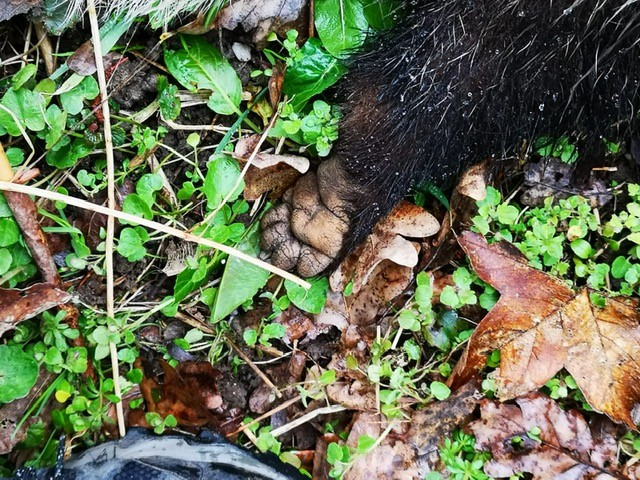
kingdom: Animalia
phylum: Chordata
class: Mammalia
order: Carnivora
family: Mustelidae
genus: Meles
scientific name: Meles meles
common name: Grævling
